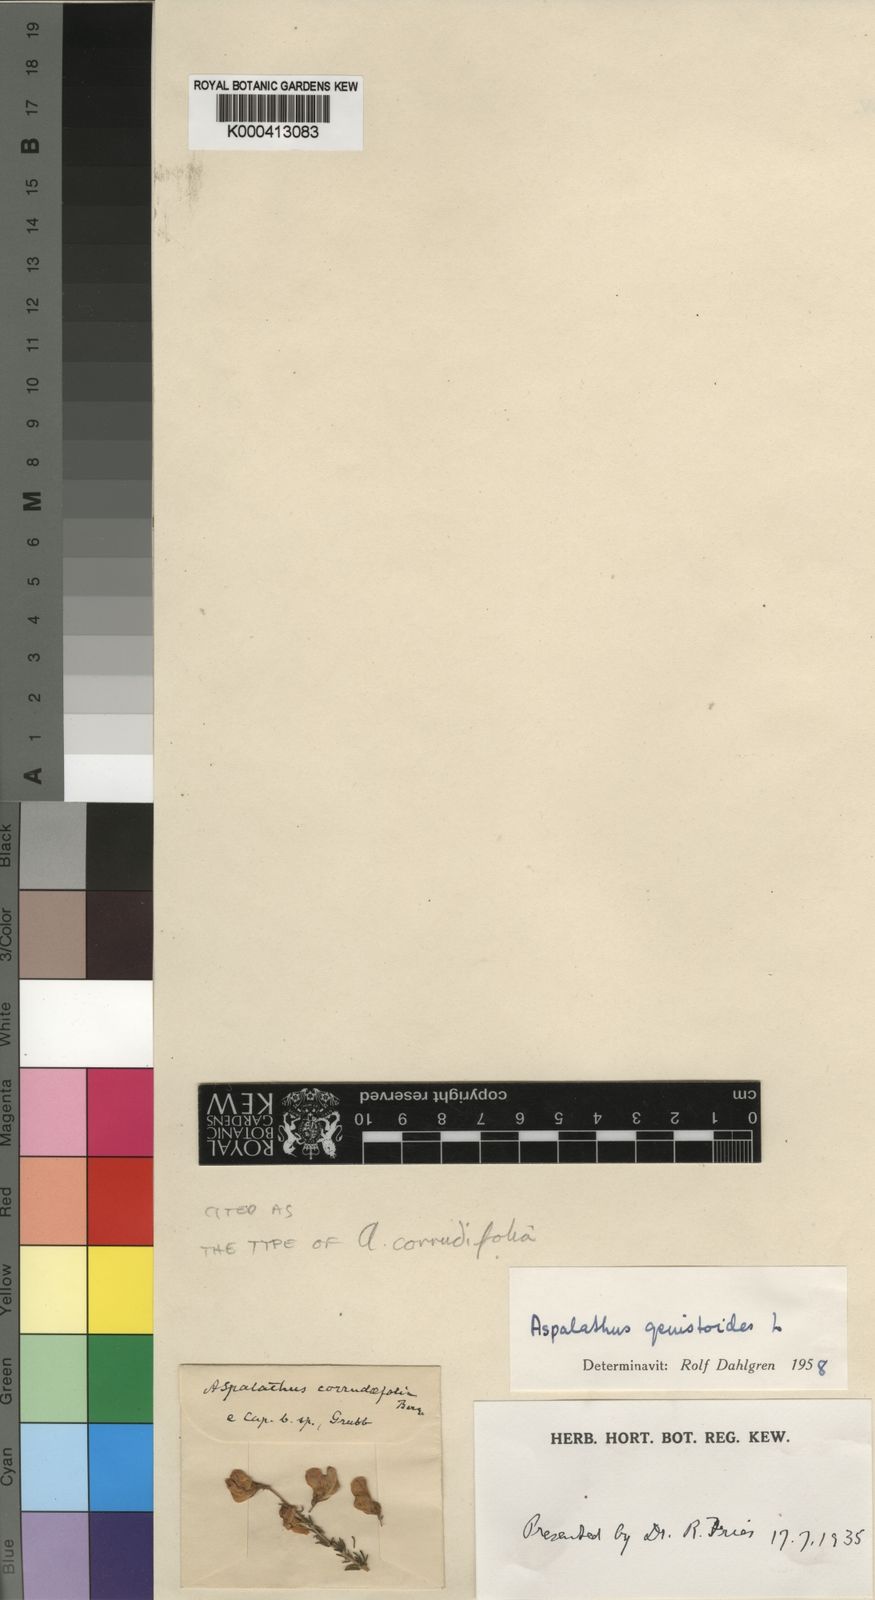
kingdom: Plantae
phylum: Tracheophyta
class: Magnoliopsida
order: Fabales
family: Fabaceae
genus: Aspalathus
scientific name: Aspalathus corrudifolia
